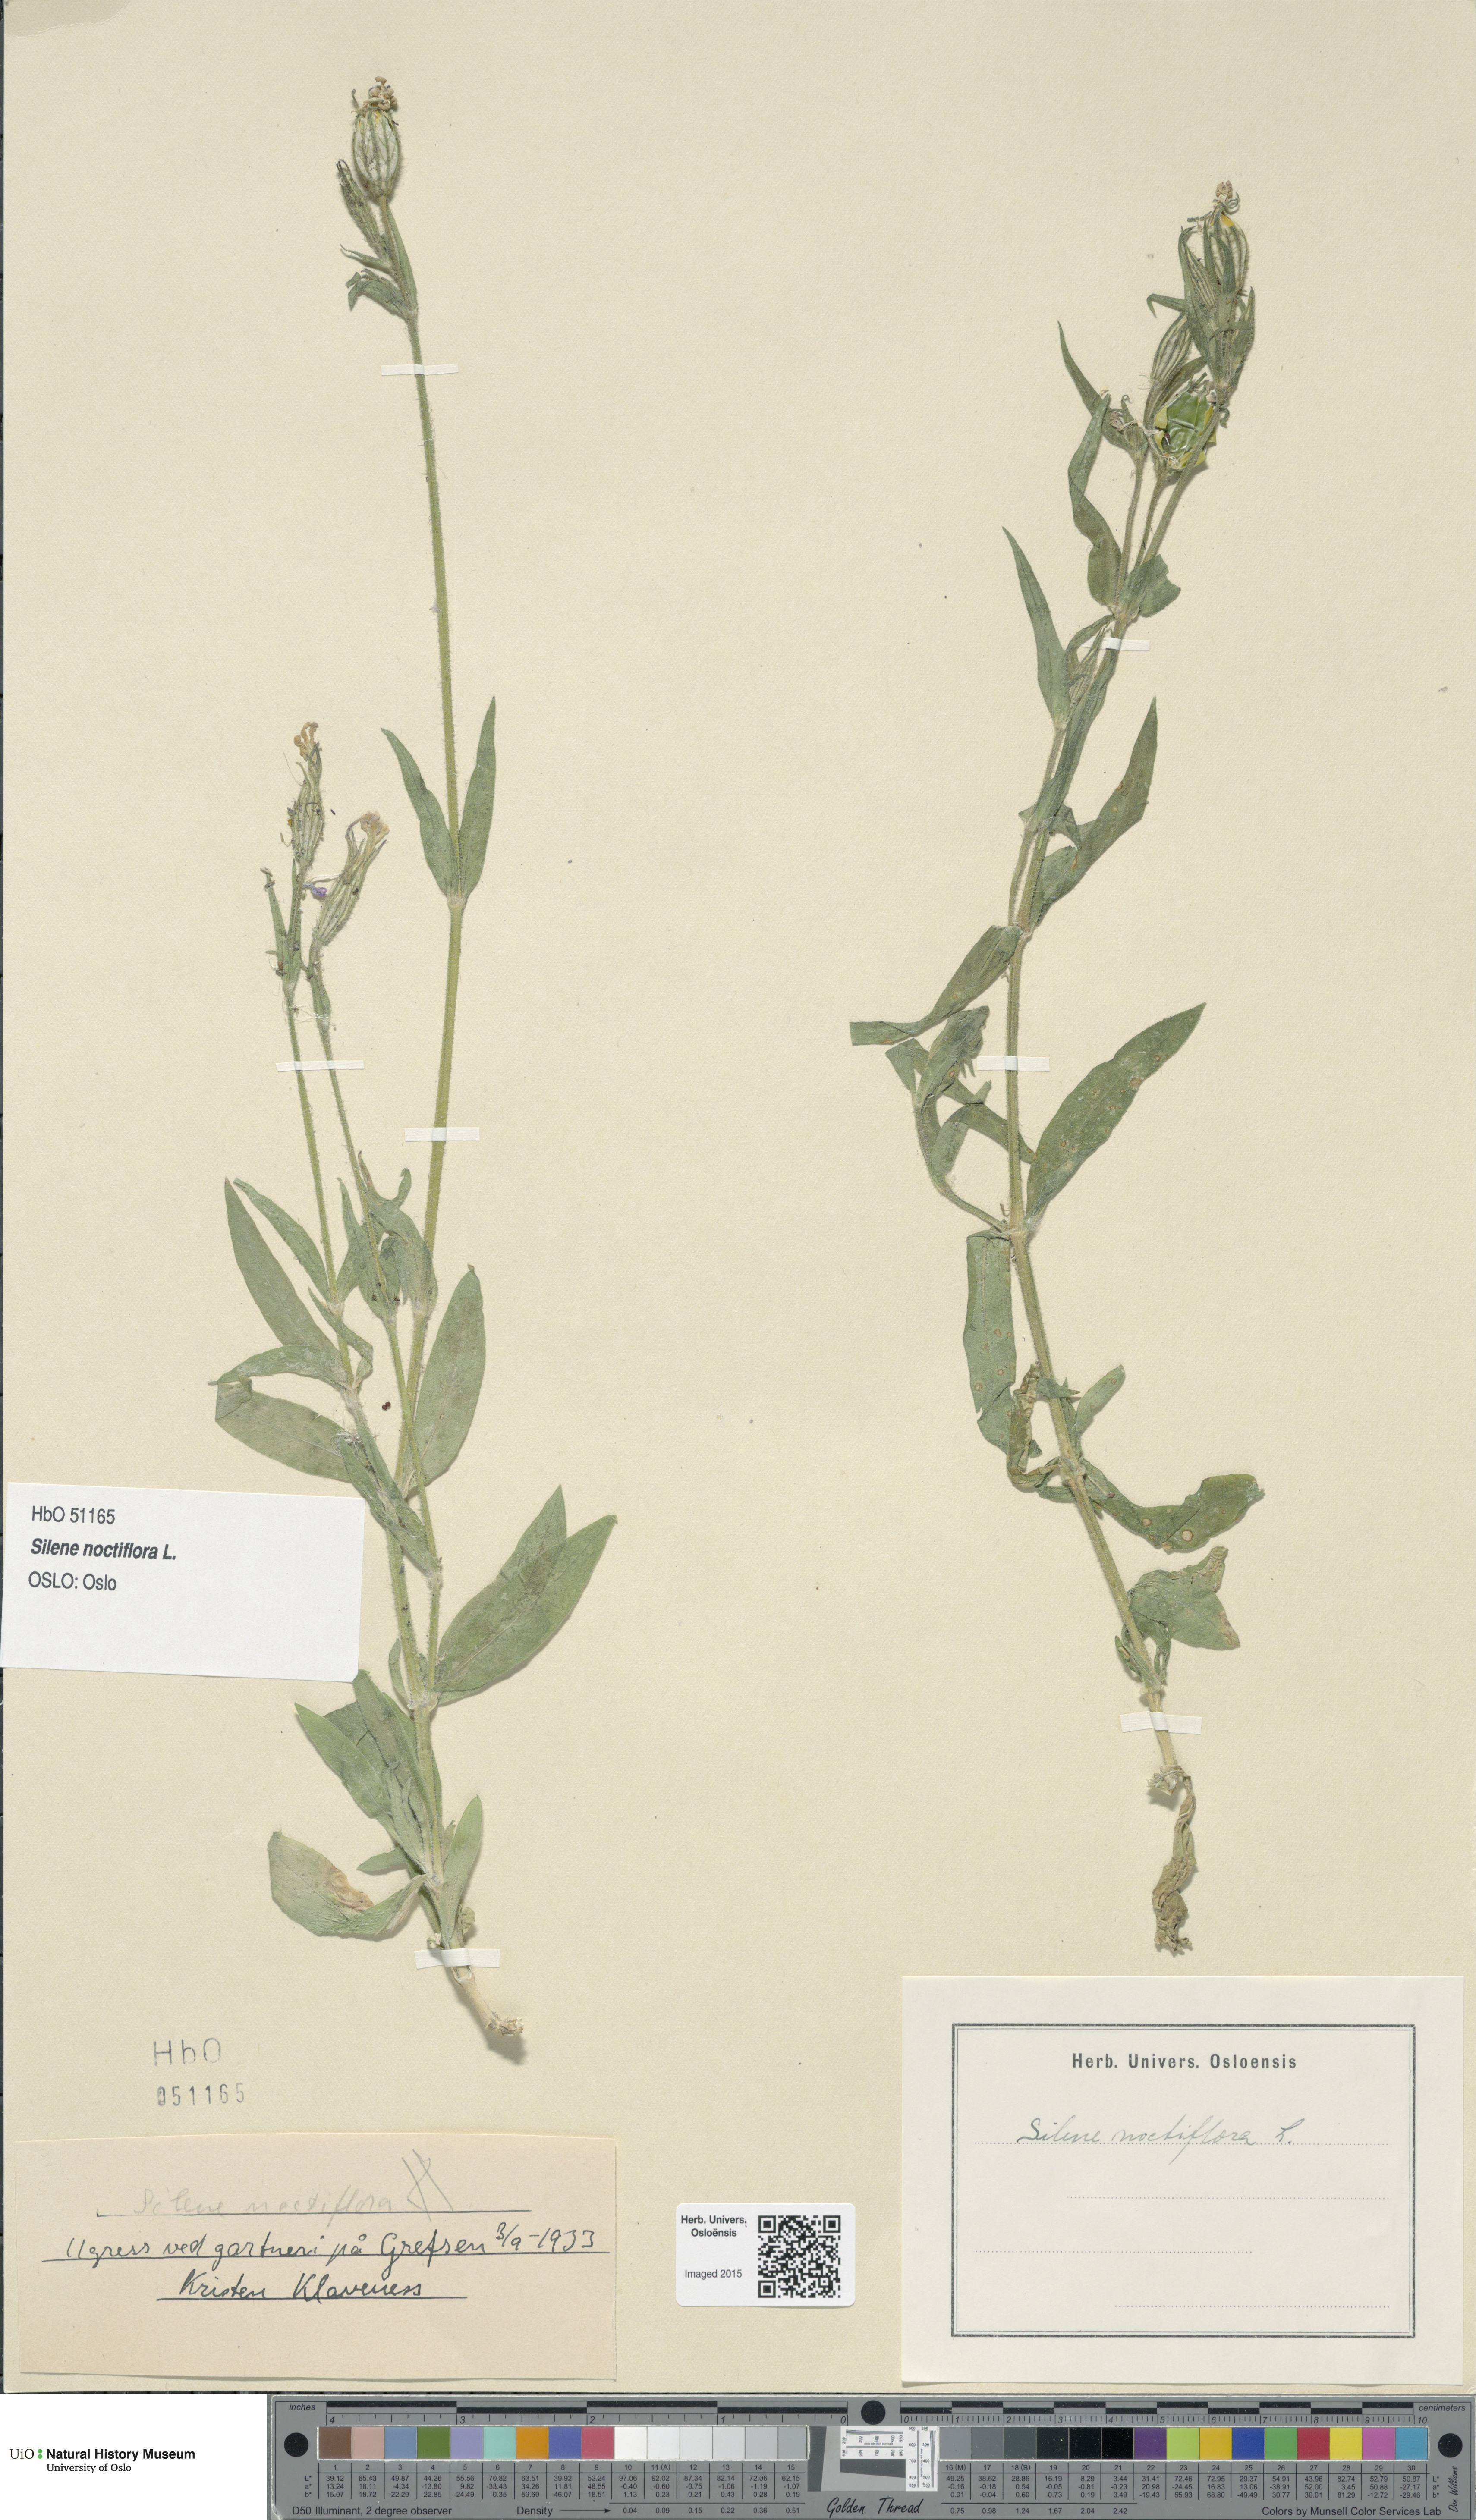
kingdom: Plantae
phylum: Tracheophyta
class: Magnoliopsida
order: Caryophyllales
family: Caryophyllaceae
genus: Silene
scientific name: Silene noctiflora
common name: Night-flowering catchfly
